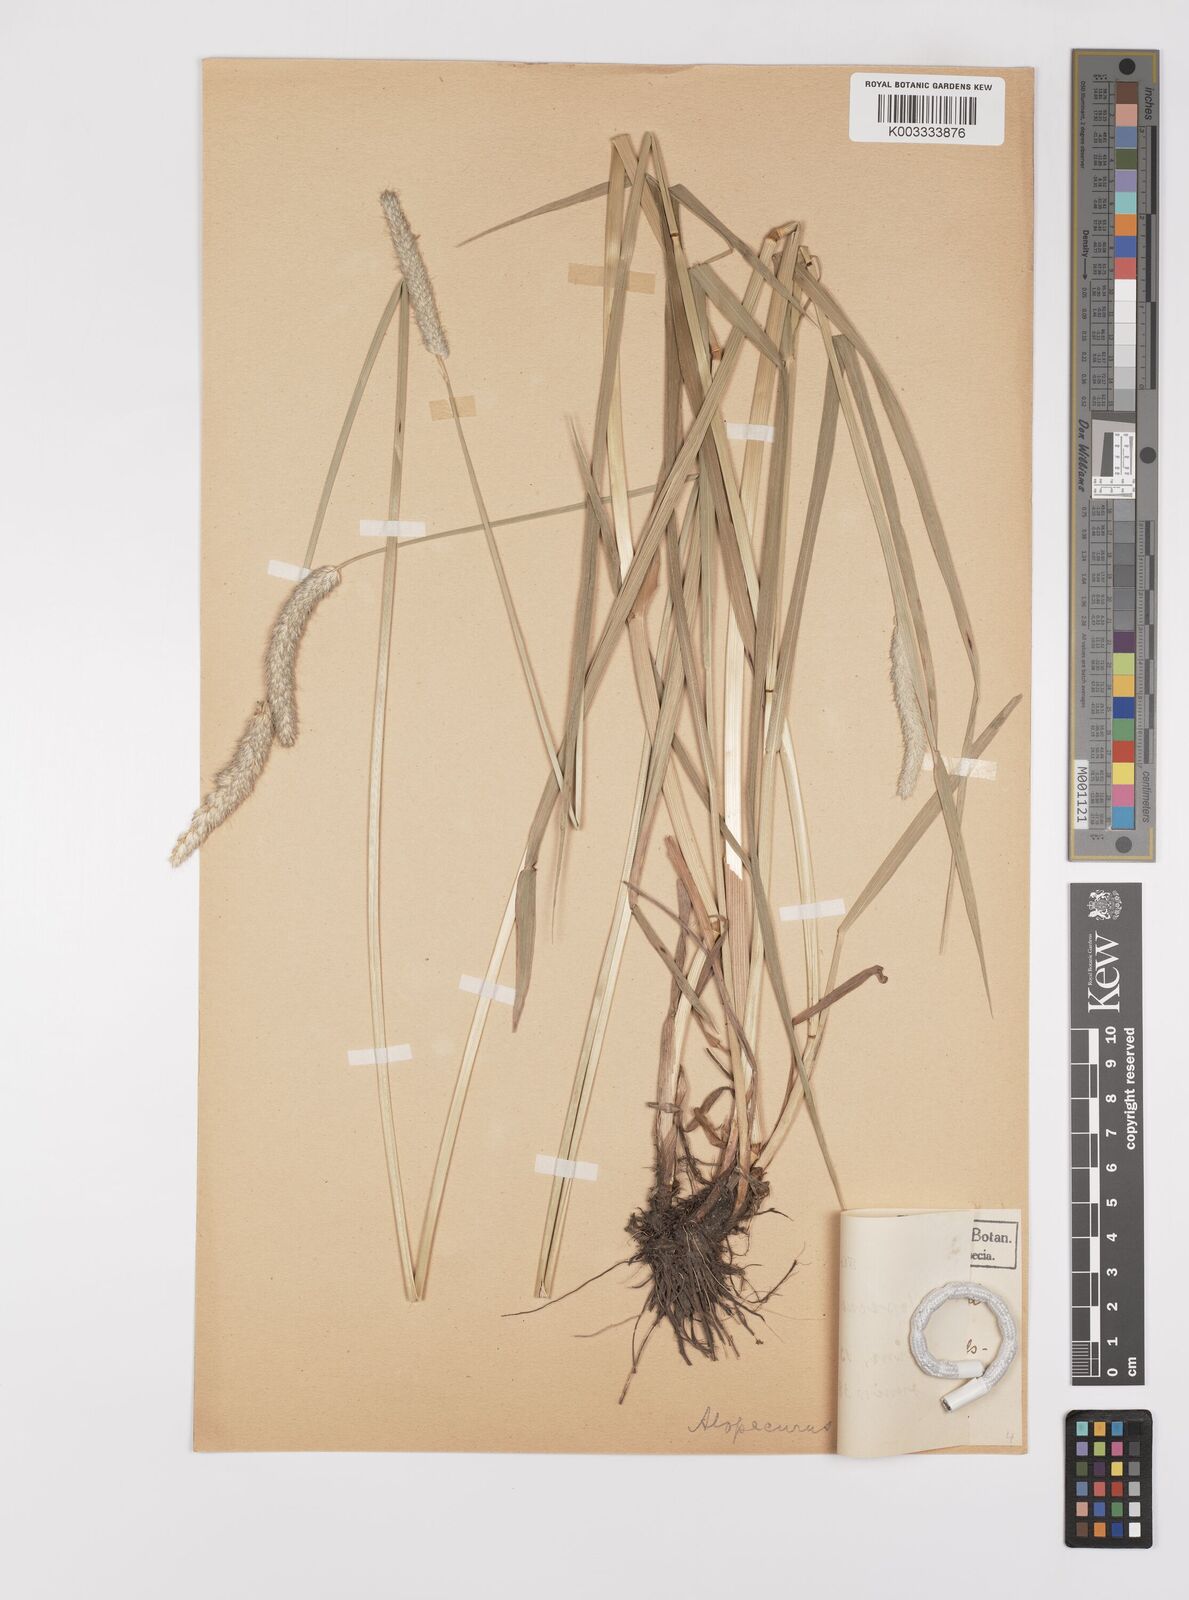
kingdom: Plantae
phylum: Tracheophyta
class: Liliopsida
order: Poales
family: Poaceae
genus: Alopecurus
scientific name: Alopecurus pratensis
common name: Meadow foxtail
